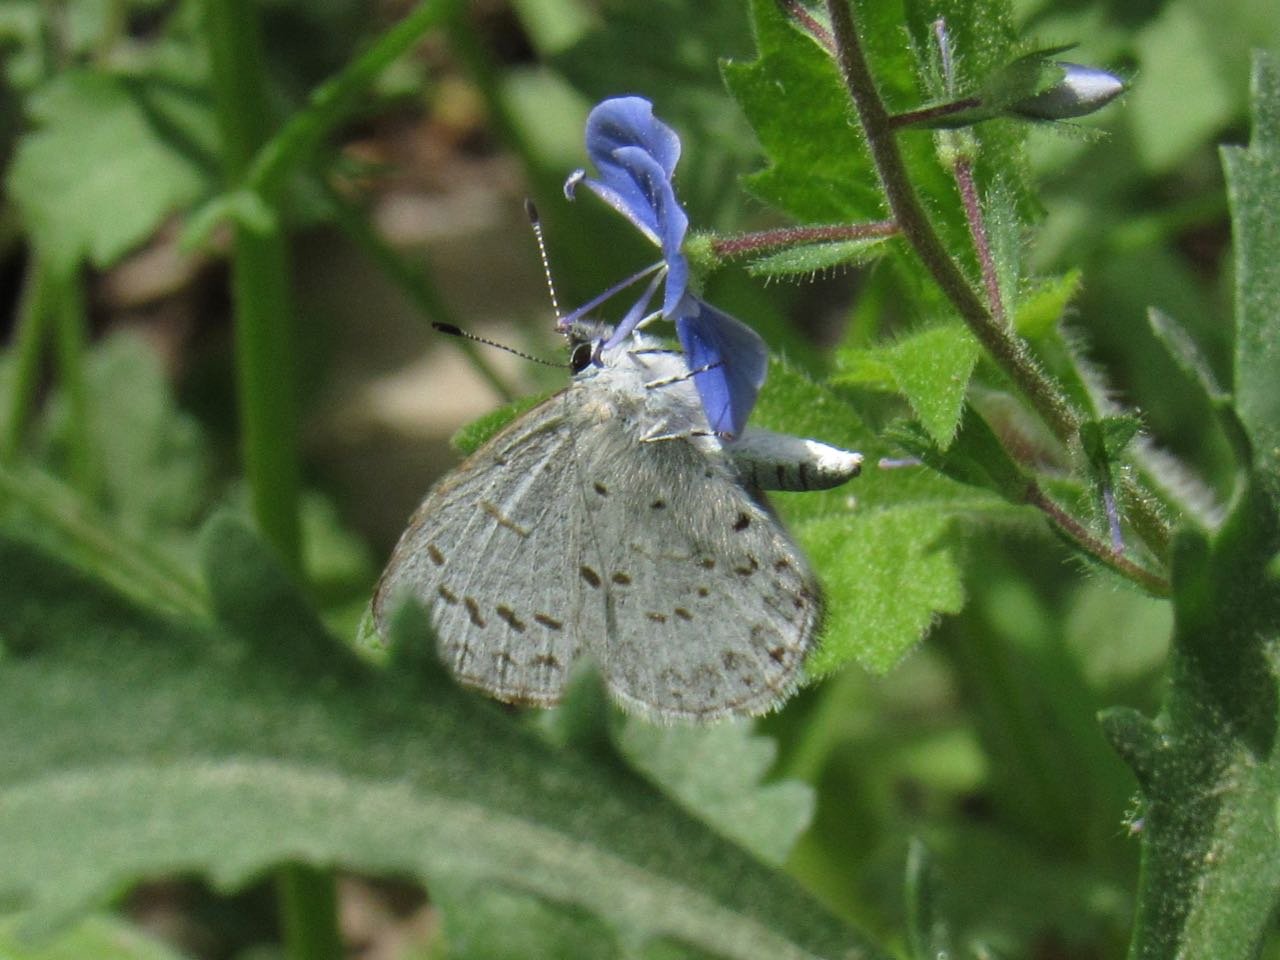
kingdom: Animalia
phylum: Arthropoda
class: Insecta
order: Lepidoptera
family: Lycaenidae
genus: Celastrina
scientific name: Celastrina lucia
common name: Northern Spring Azure
